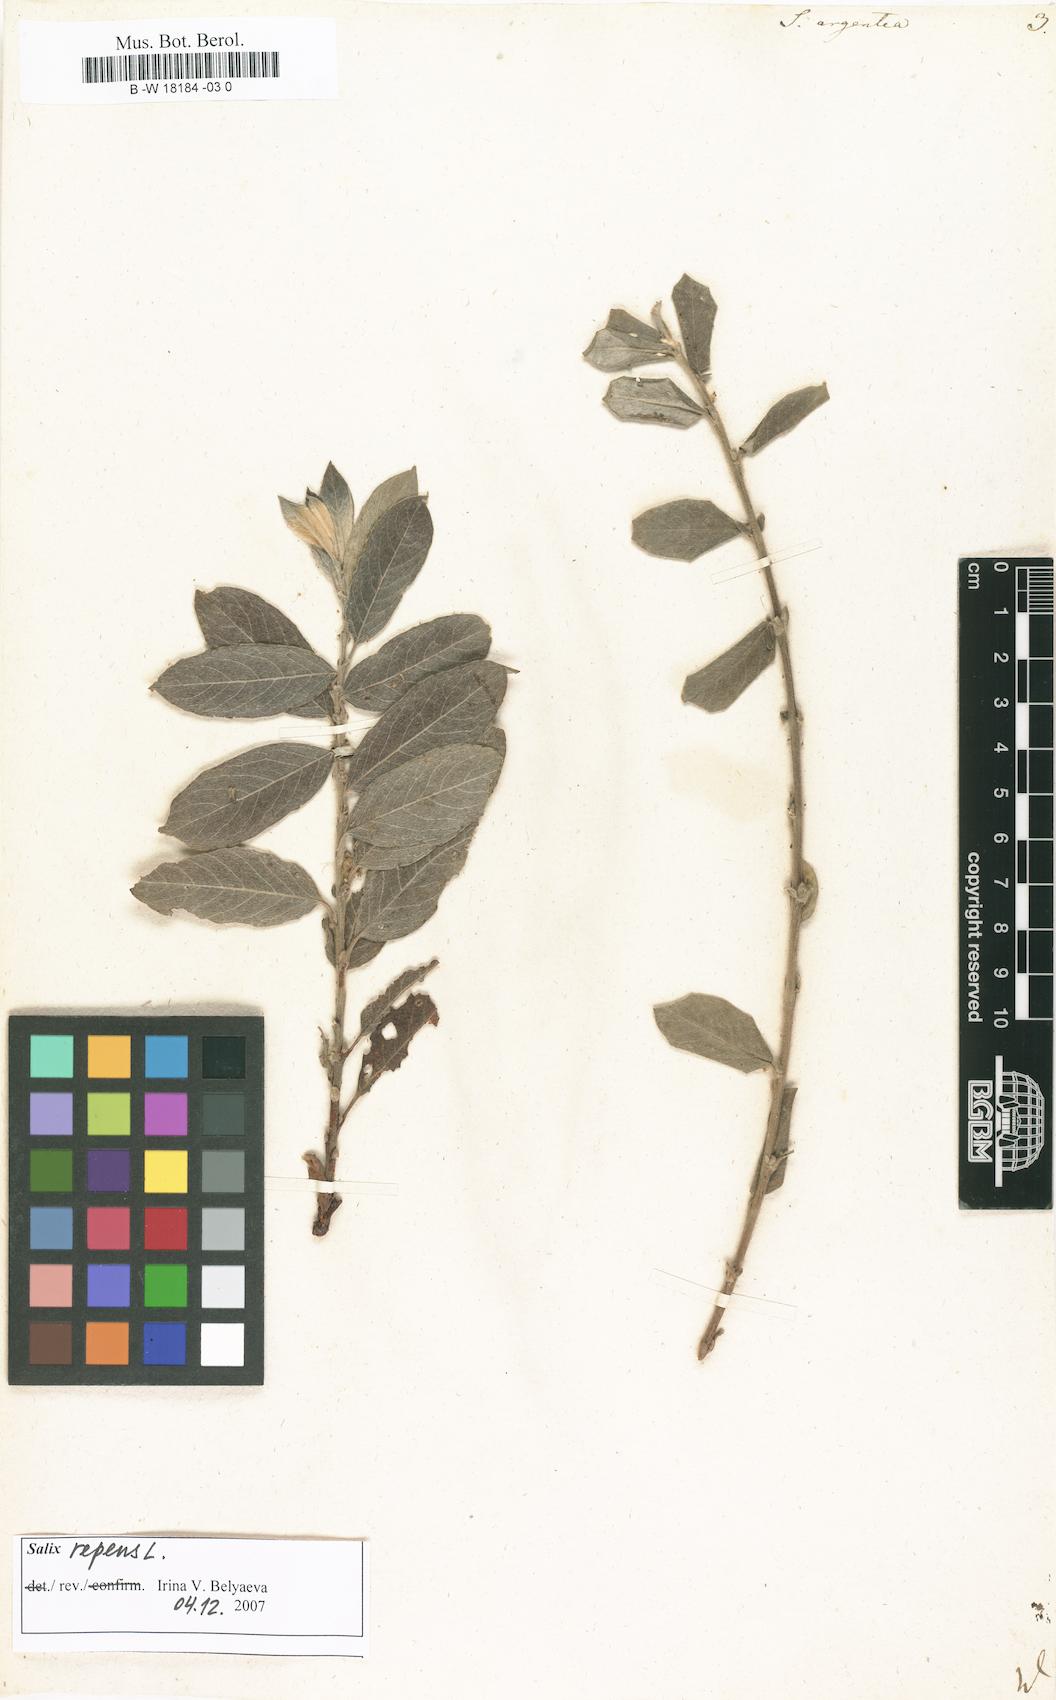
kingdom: Plantae
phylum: Tracheophyta
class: Magnoliopsida
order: Malpighiales
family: Salicaceae
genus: Salix
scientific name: Salix repens
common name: Creeping willow
